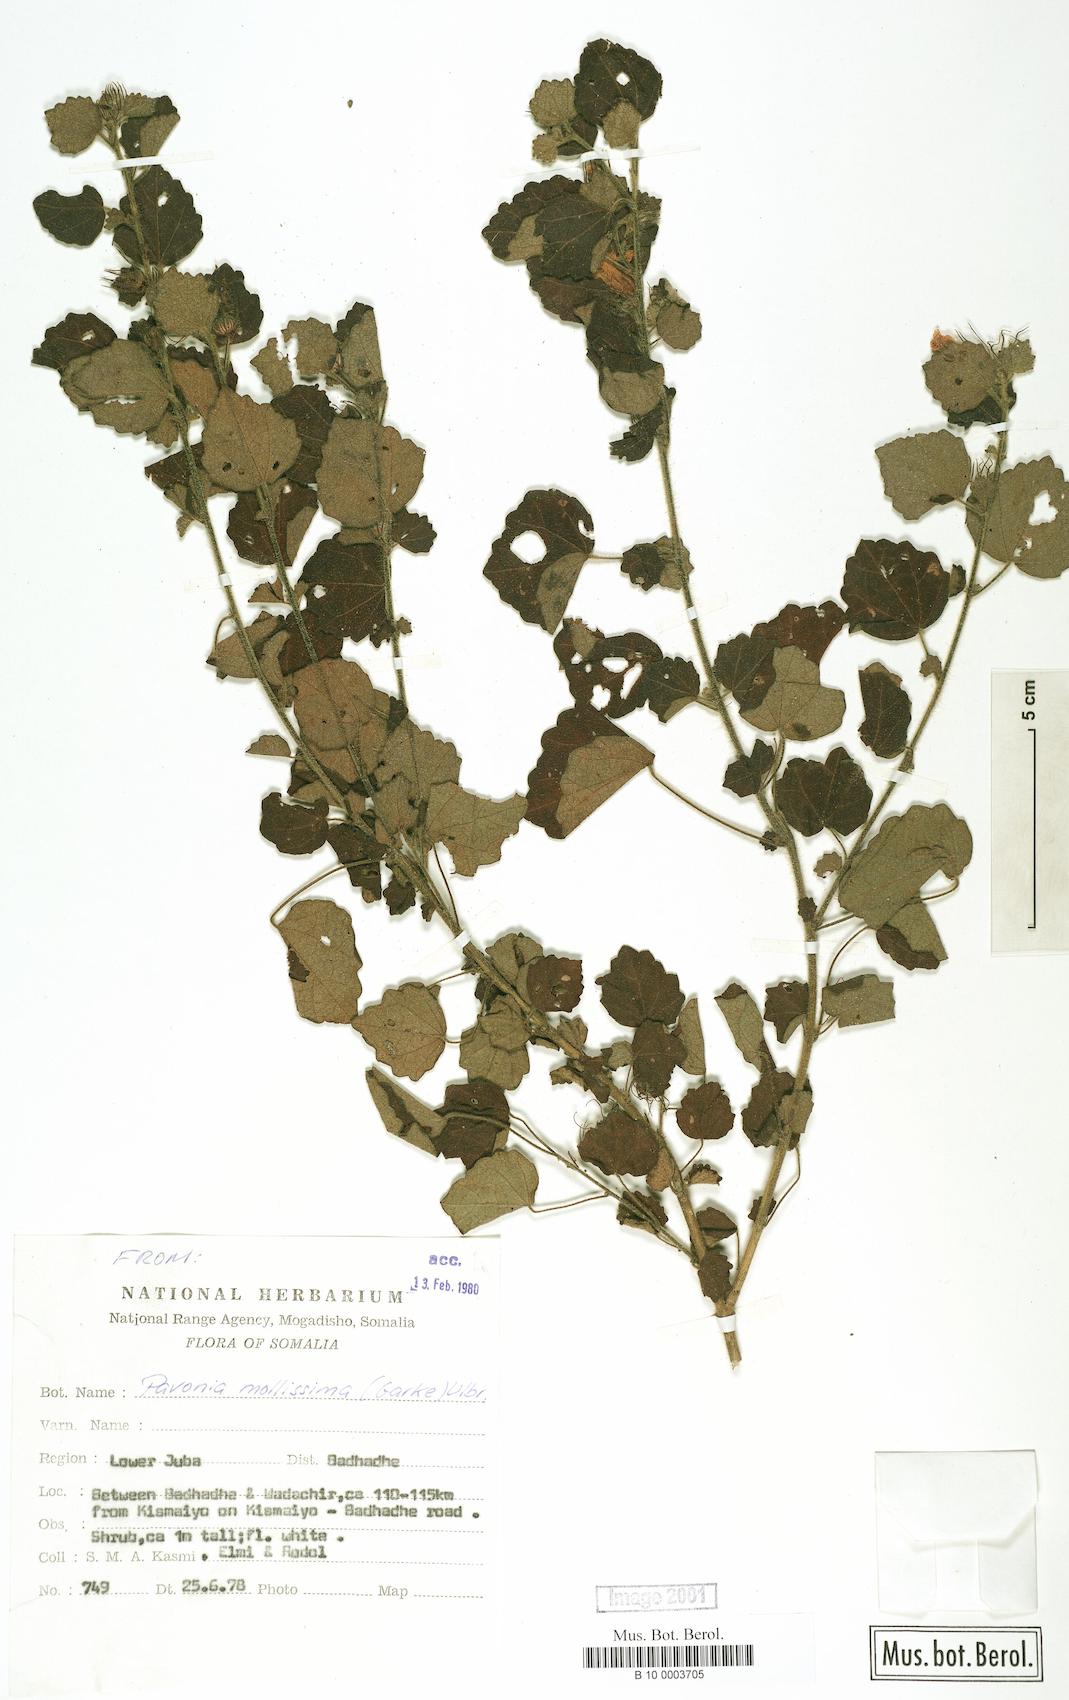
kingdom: Plantae
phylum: Tracheophyta
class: Magnoliopsida
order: Malvales
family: Malvaceae
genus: Pavonia
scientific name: Pavonia mollissima
